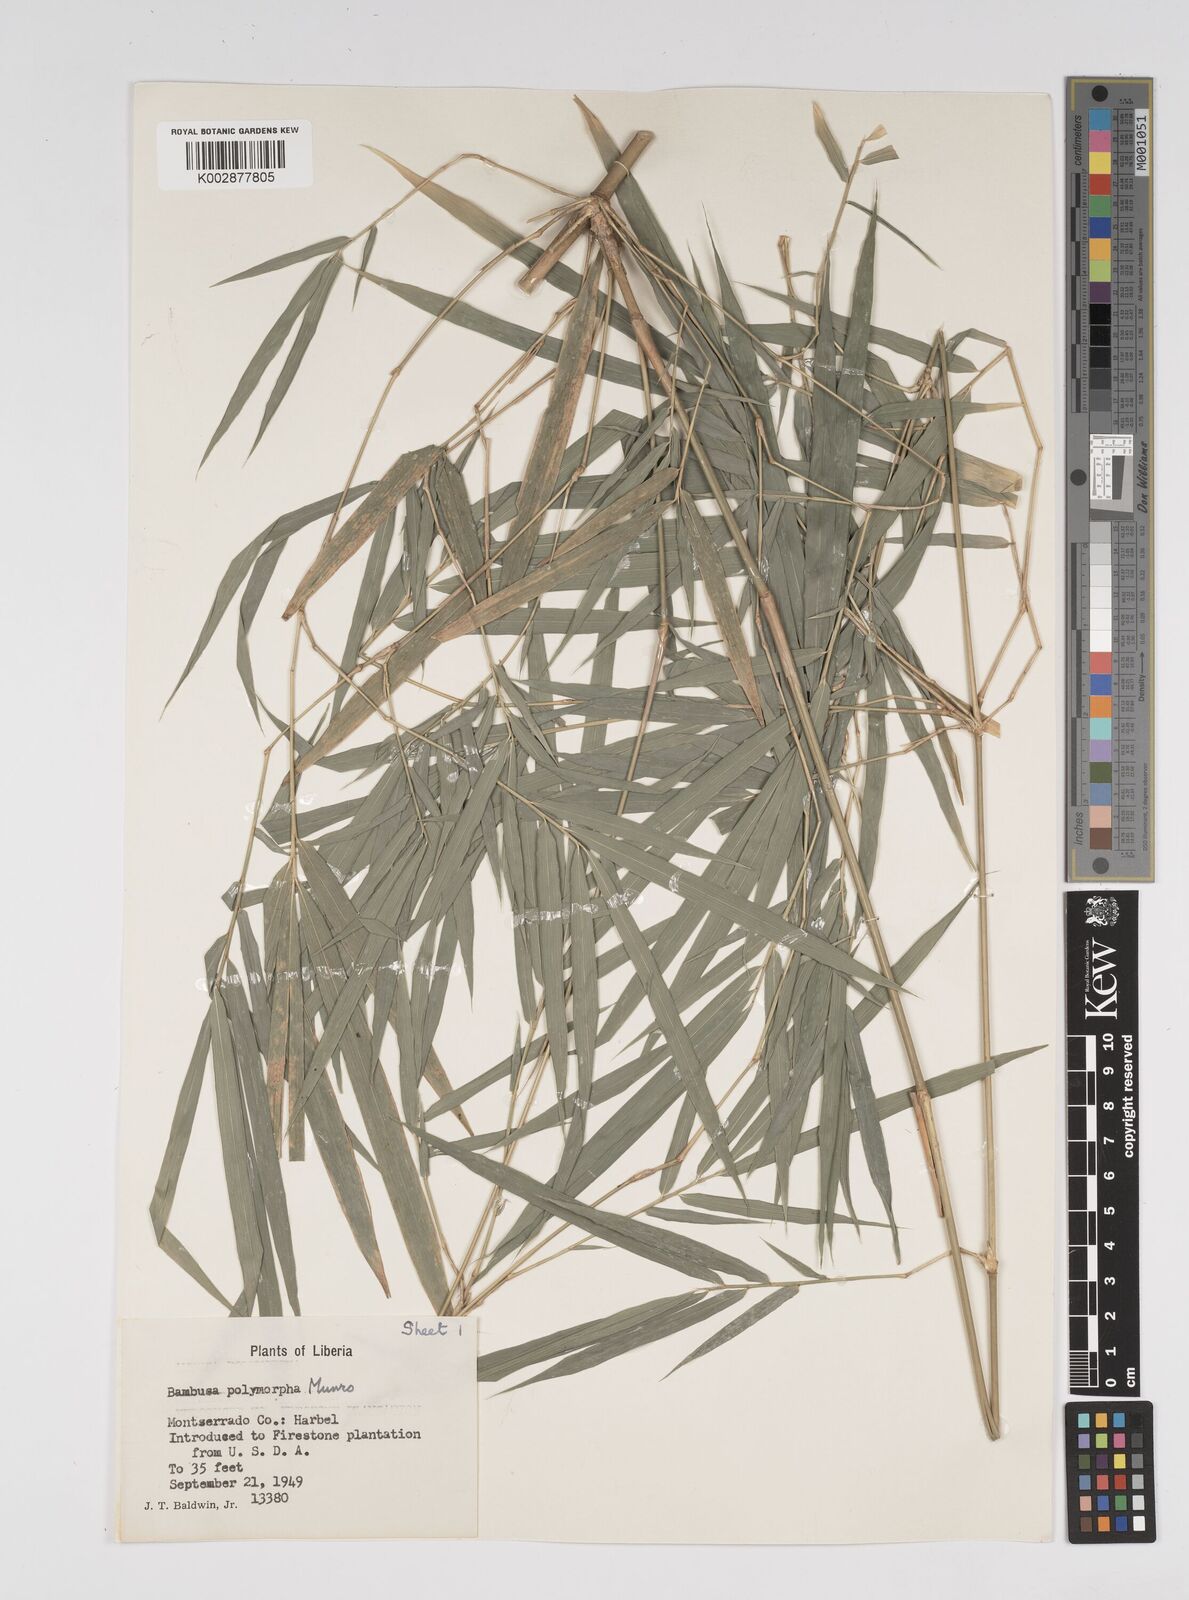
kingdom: Plantae
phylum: Tracheophyta
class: Liliopsida
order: Poales
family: Poaceae
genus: Bambusa
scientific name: Bambusa polymorpha
